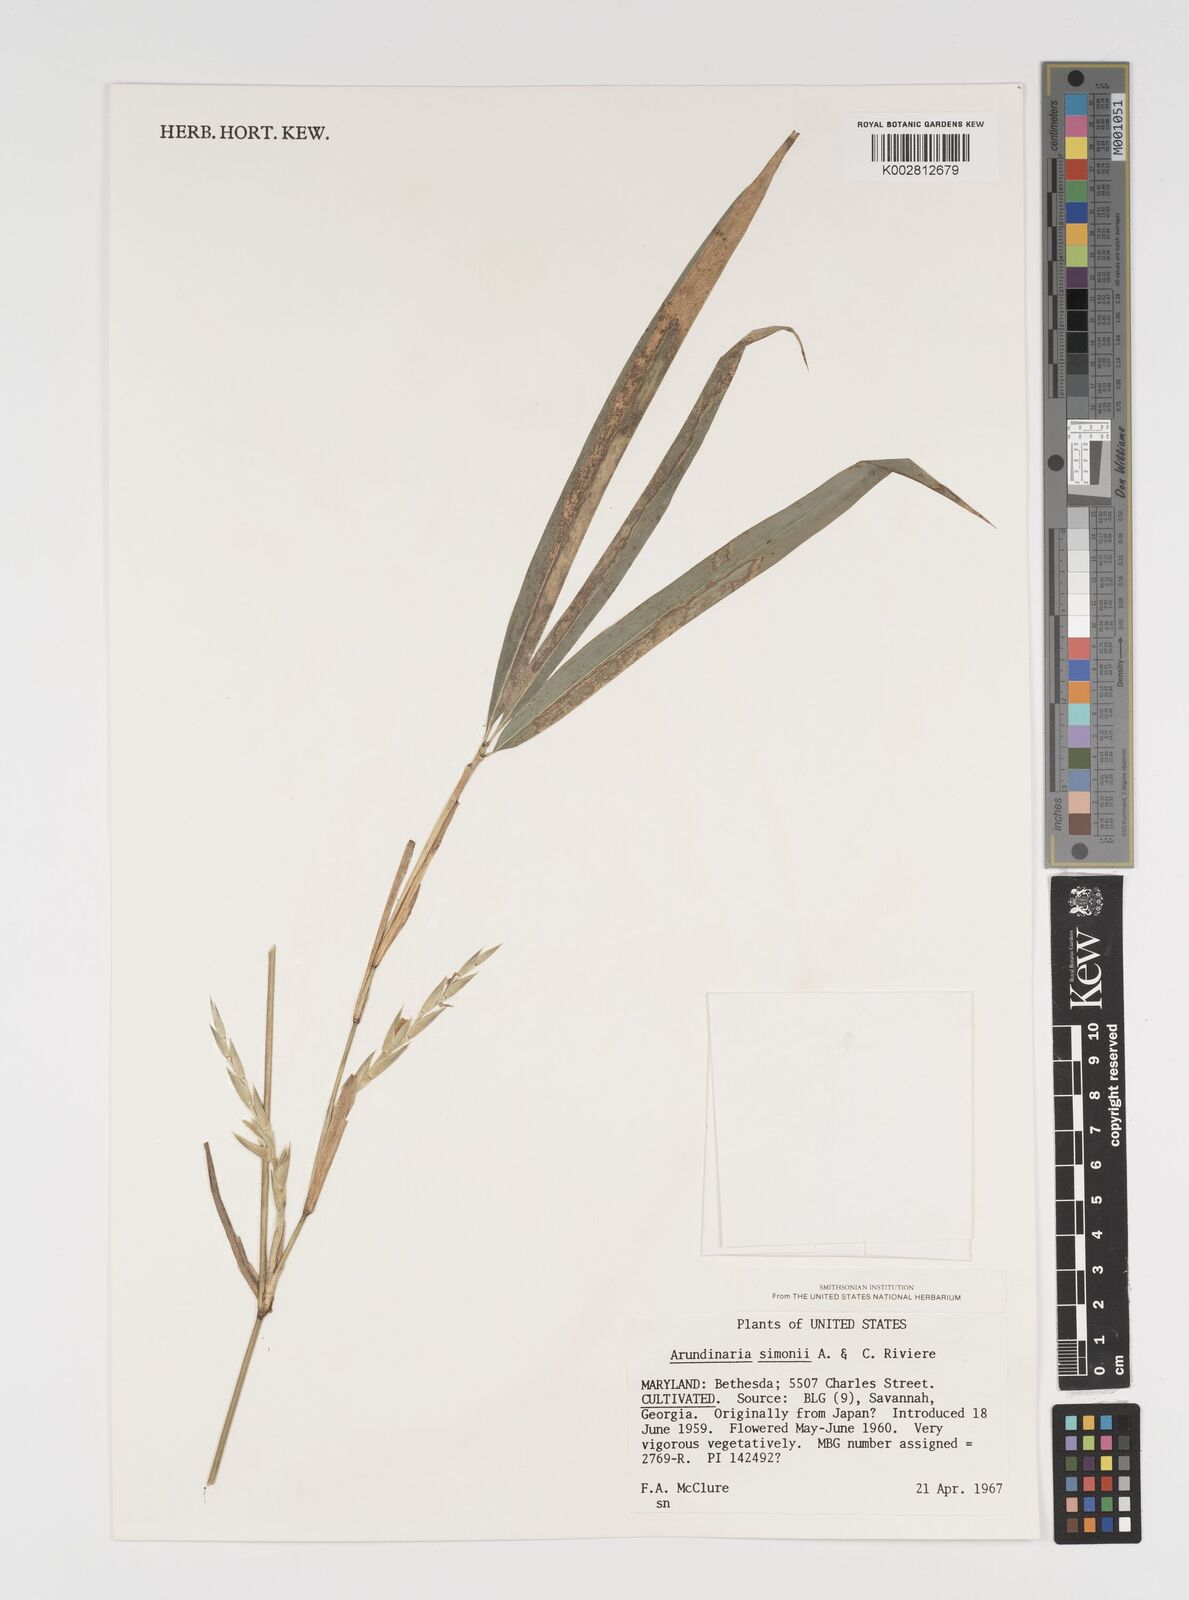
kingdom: Plantae
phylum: Tracheophyta
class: Liliopsida
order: Poales
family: Poaceae
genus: Pleioblastus
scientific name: Pleioblastus simonii
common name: Simon bamboo
